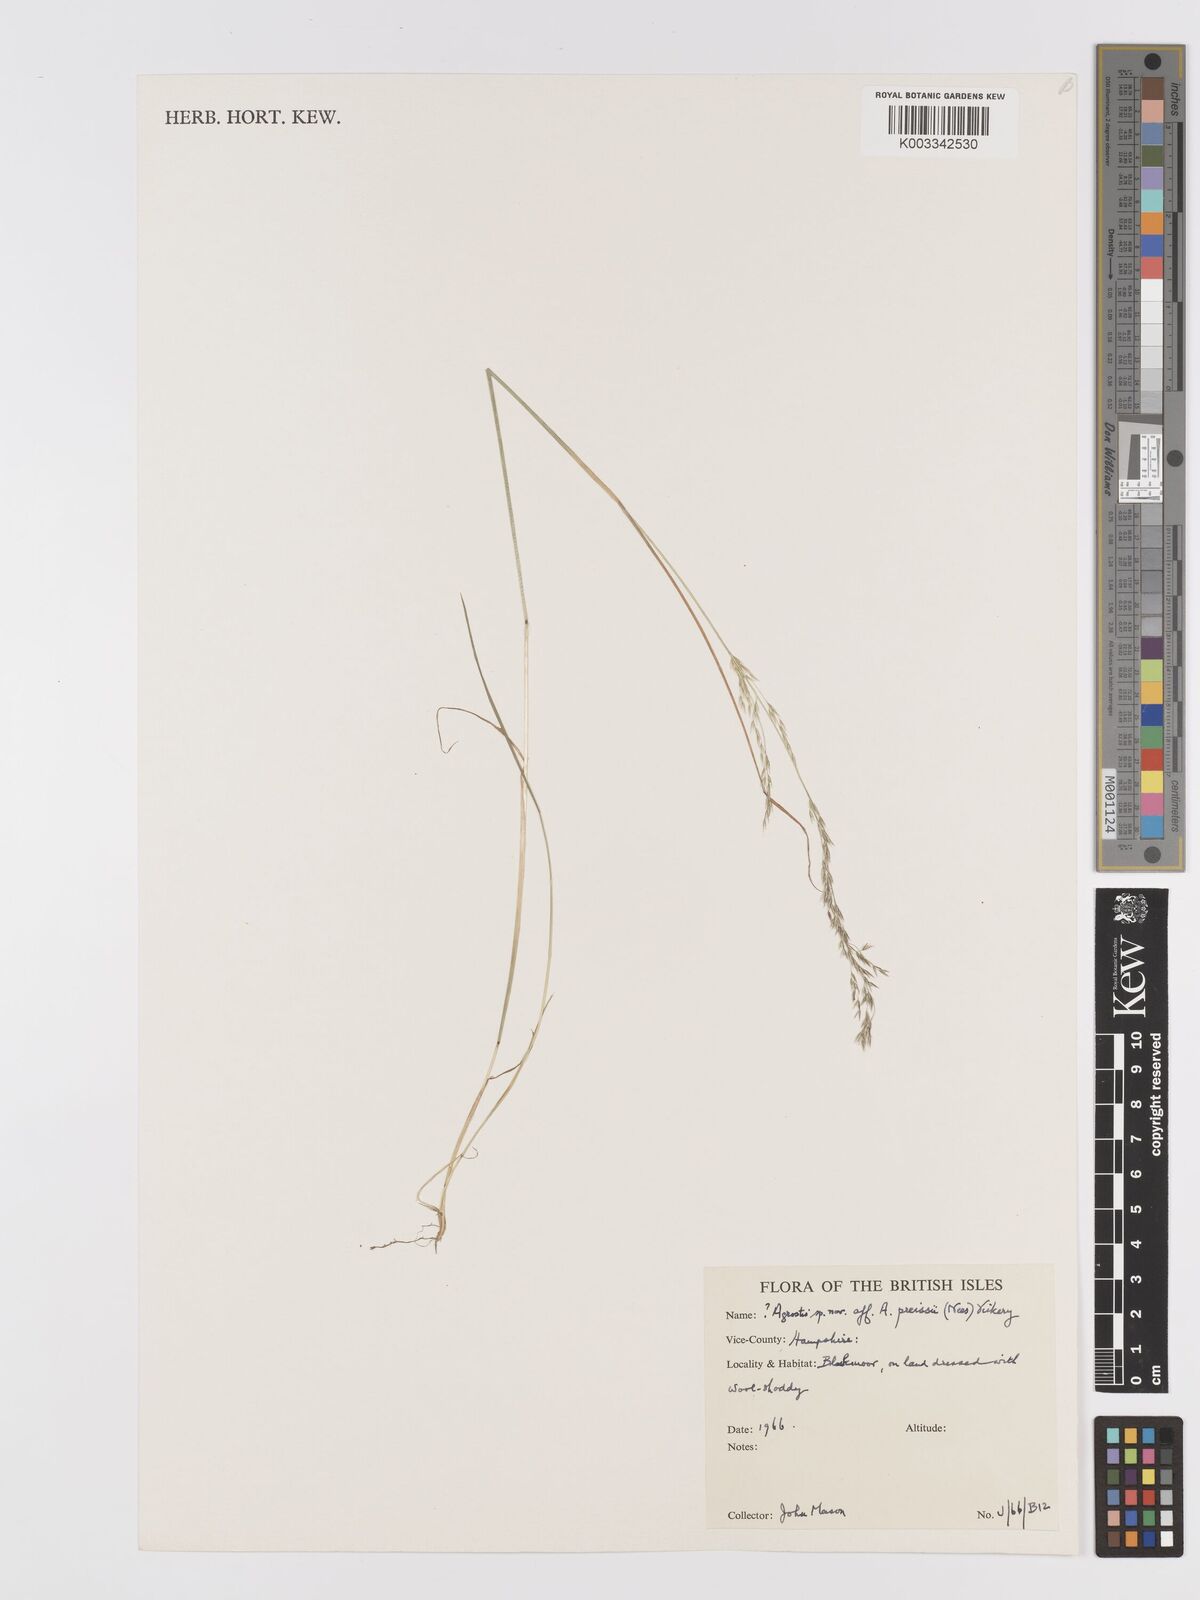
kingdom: Plantae
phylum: Tracheophyta
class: Liliopsida
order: Poales
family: Poaceae
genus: Agrostis
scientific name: Agrostis
